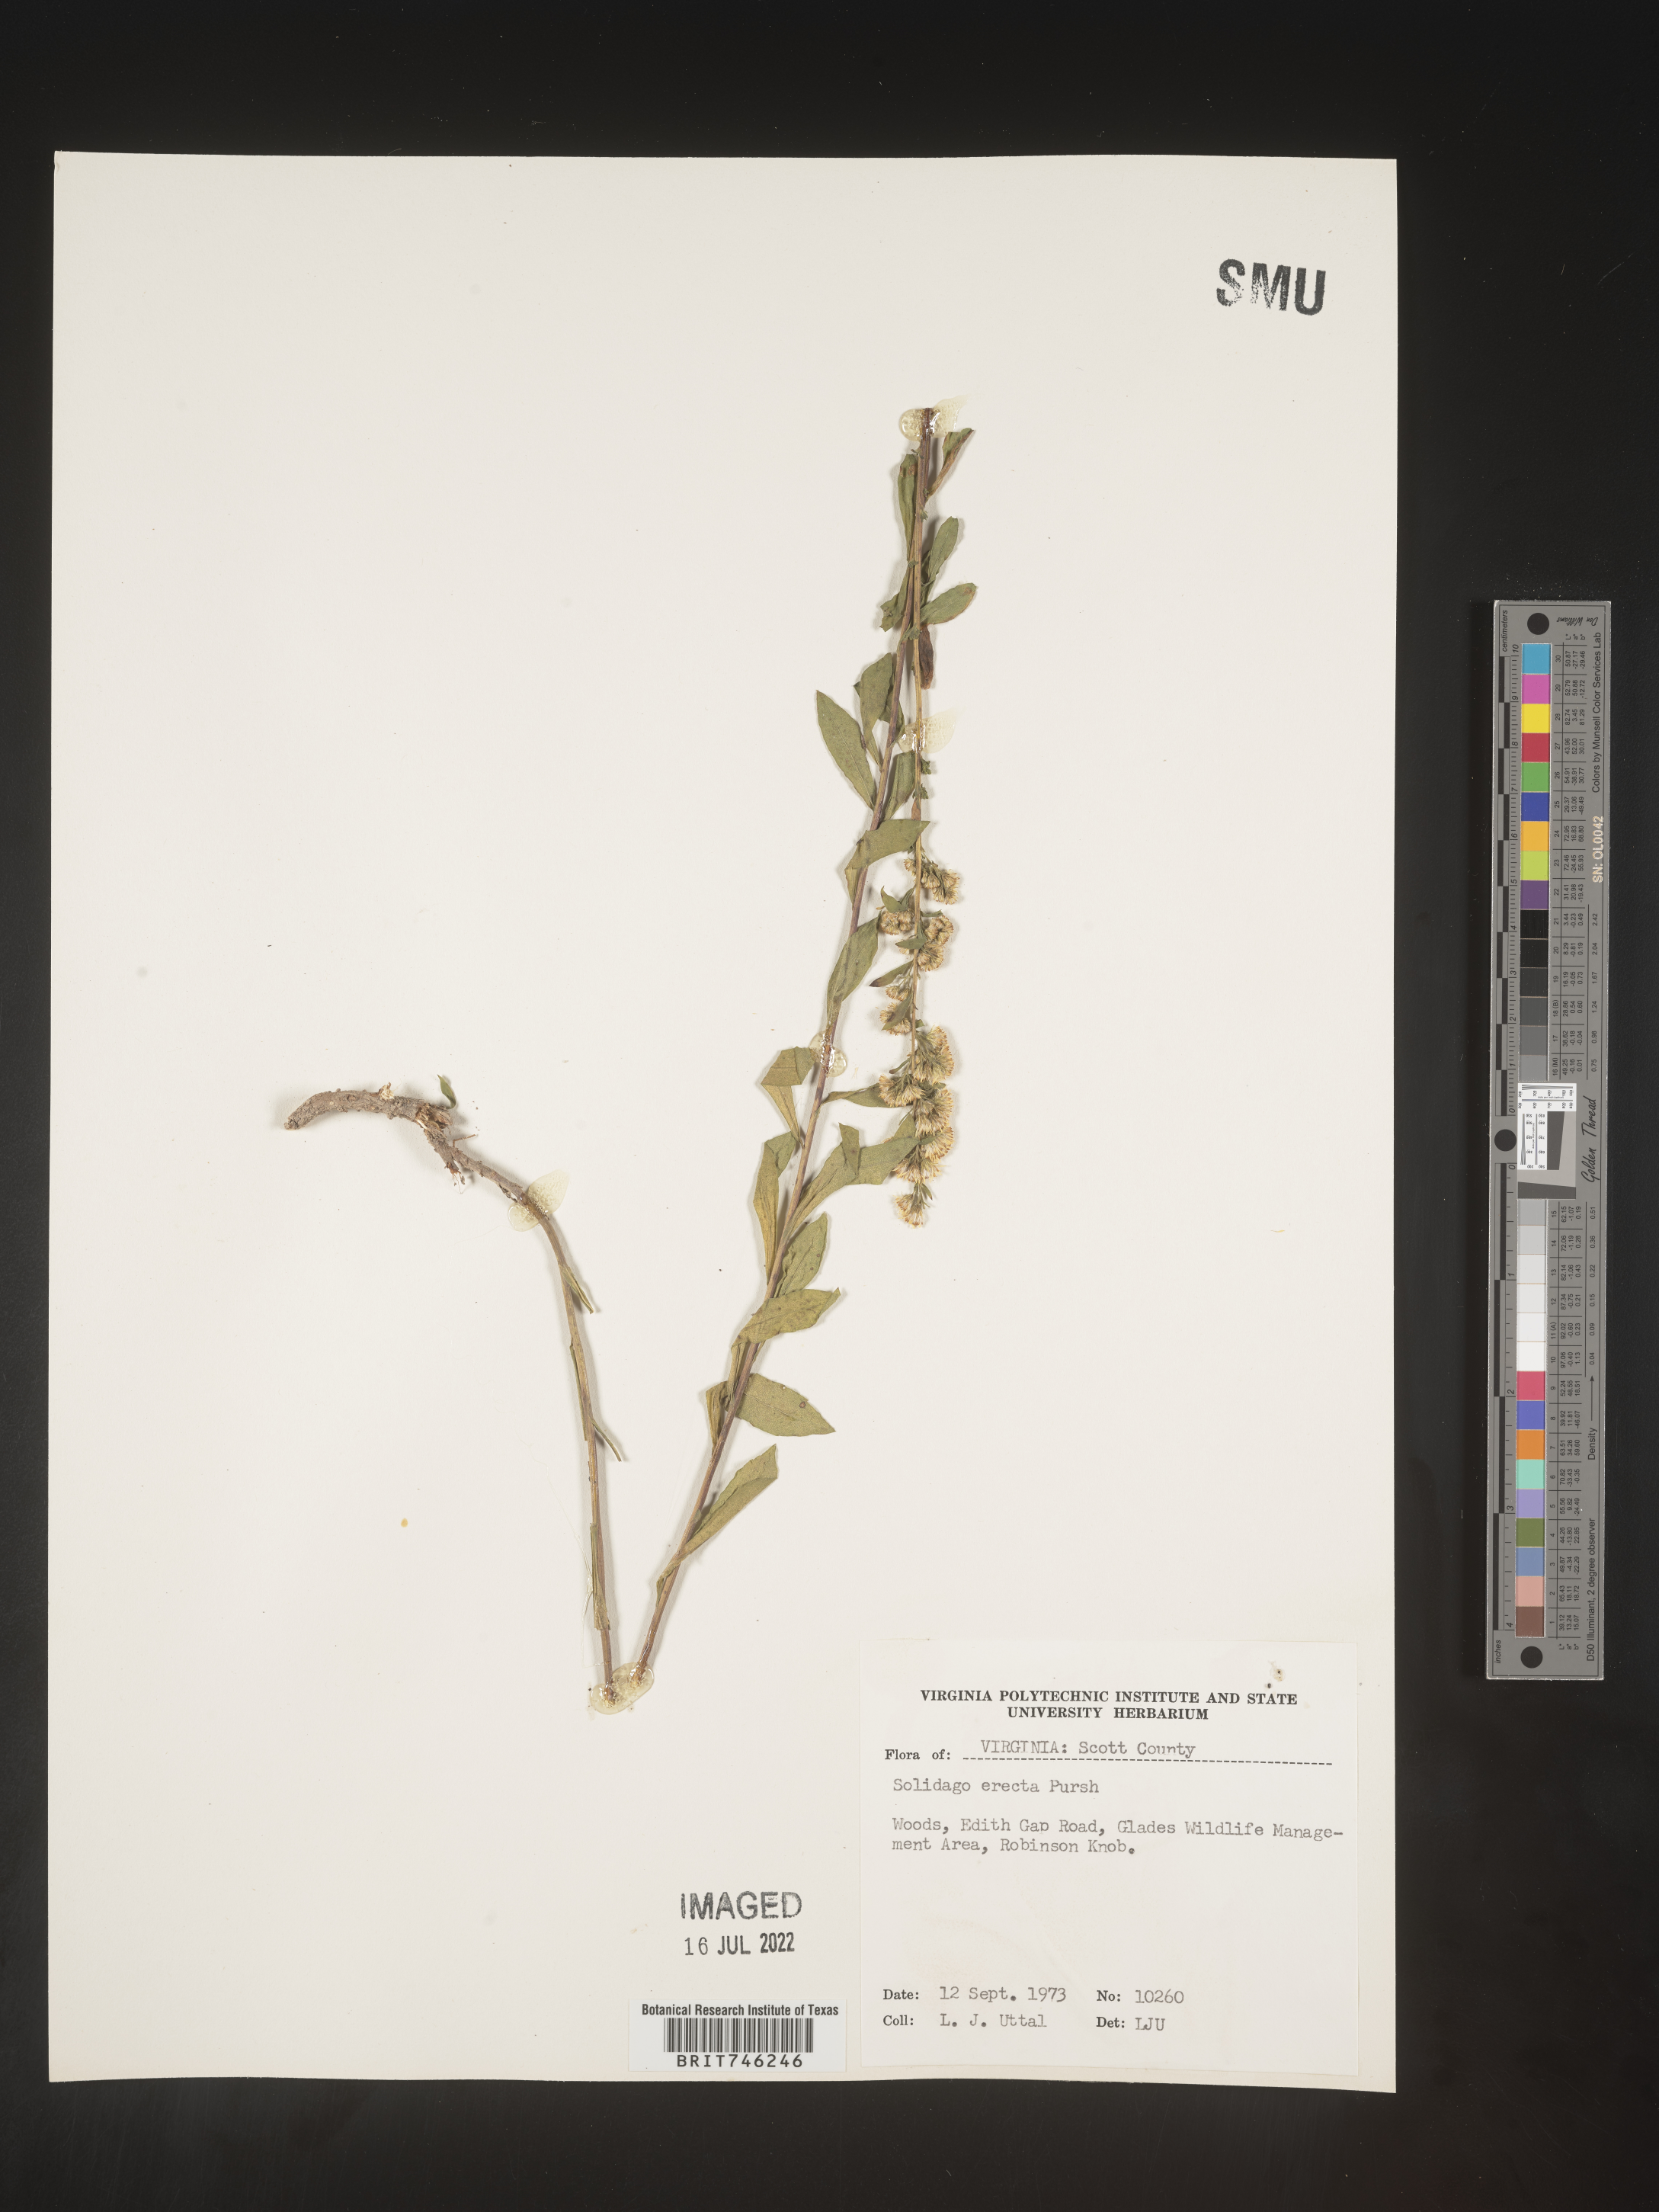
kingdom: Plantae
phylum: Tracheophyta
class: Magnoliopsida
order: Asterales
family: Asteraceae
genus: Solidago
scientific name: Solidago erecta
